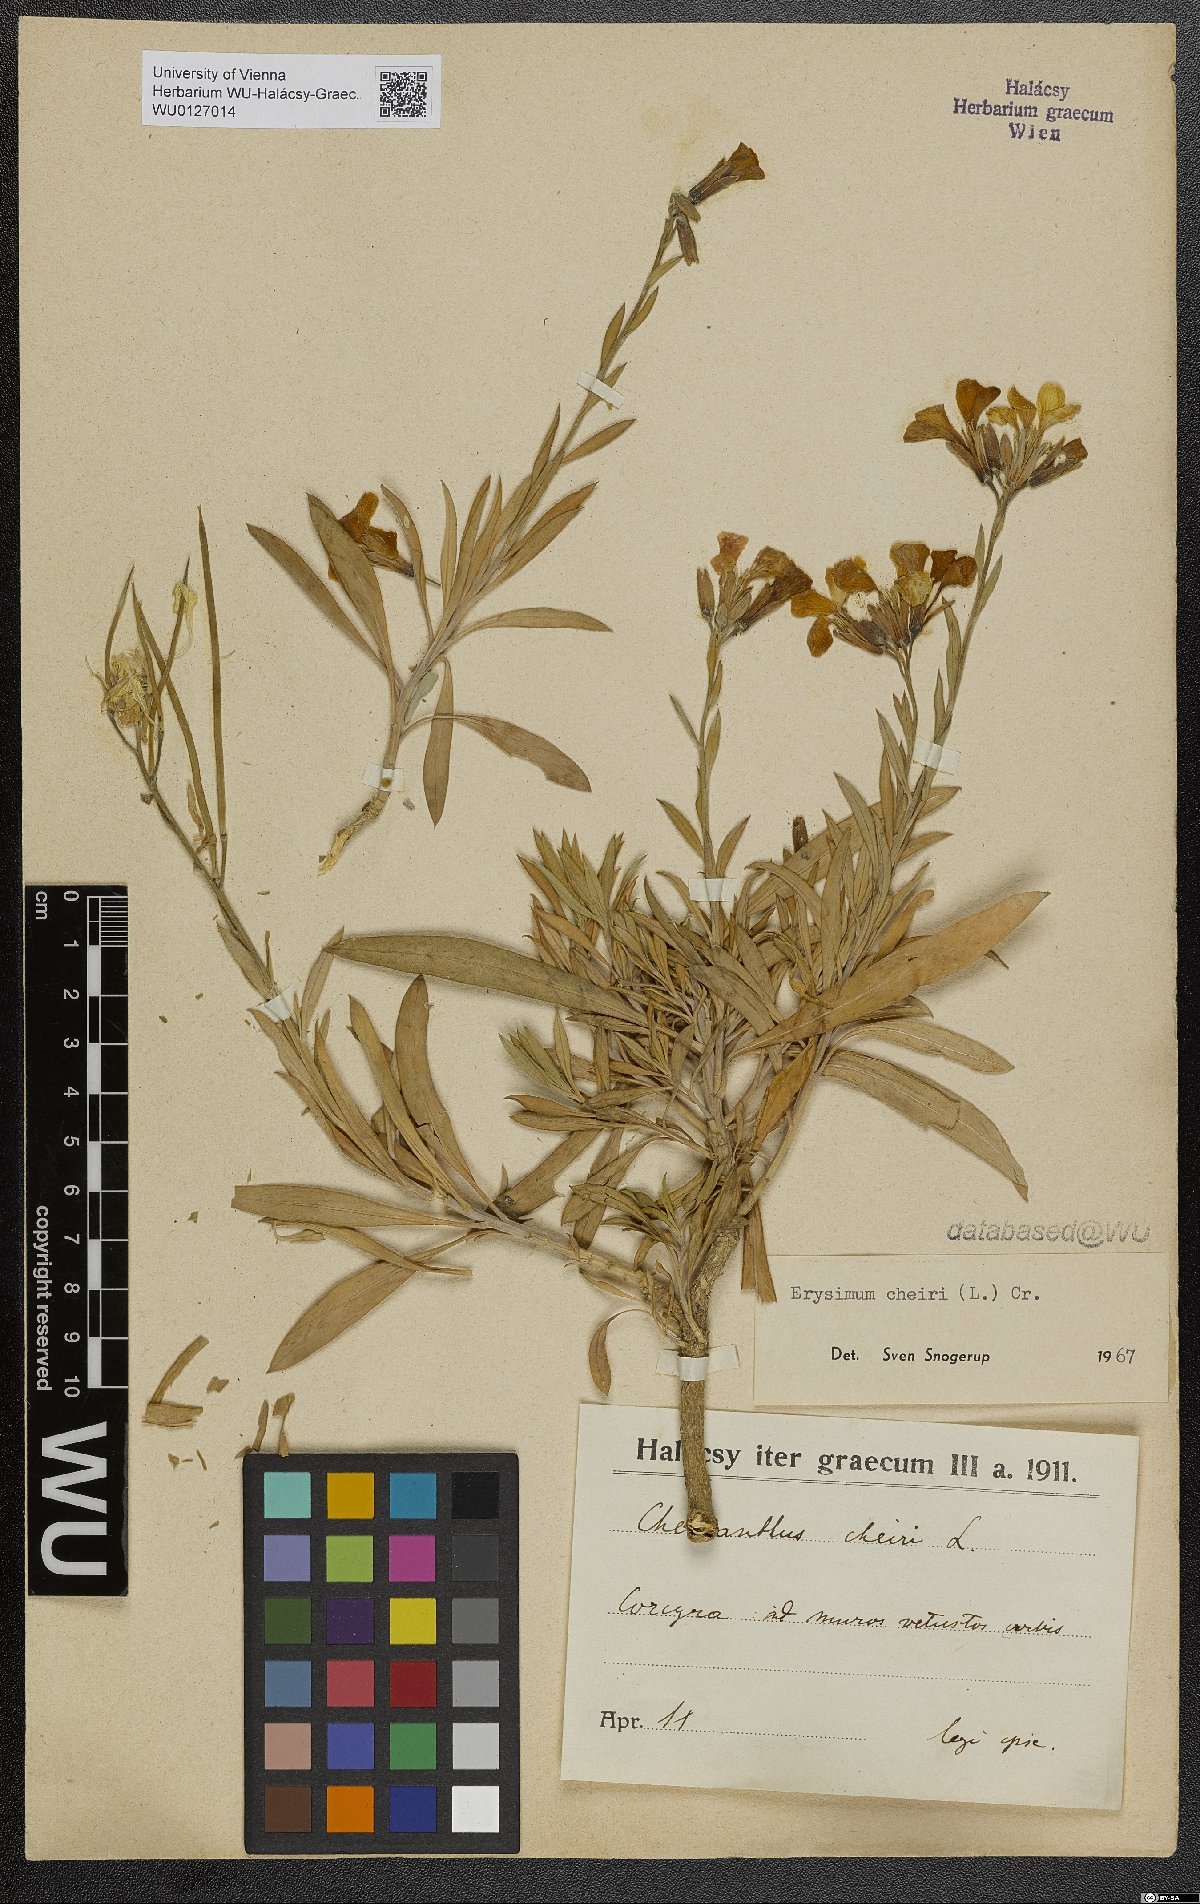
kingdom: Plantae
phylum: Tracheophyta
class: Magnoliopsida
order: Brassicales
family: Brassicaceae
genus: Erysimum
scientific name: Erysimum cheiri
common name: Wallflower
